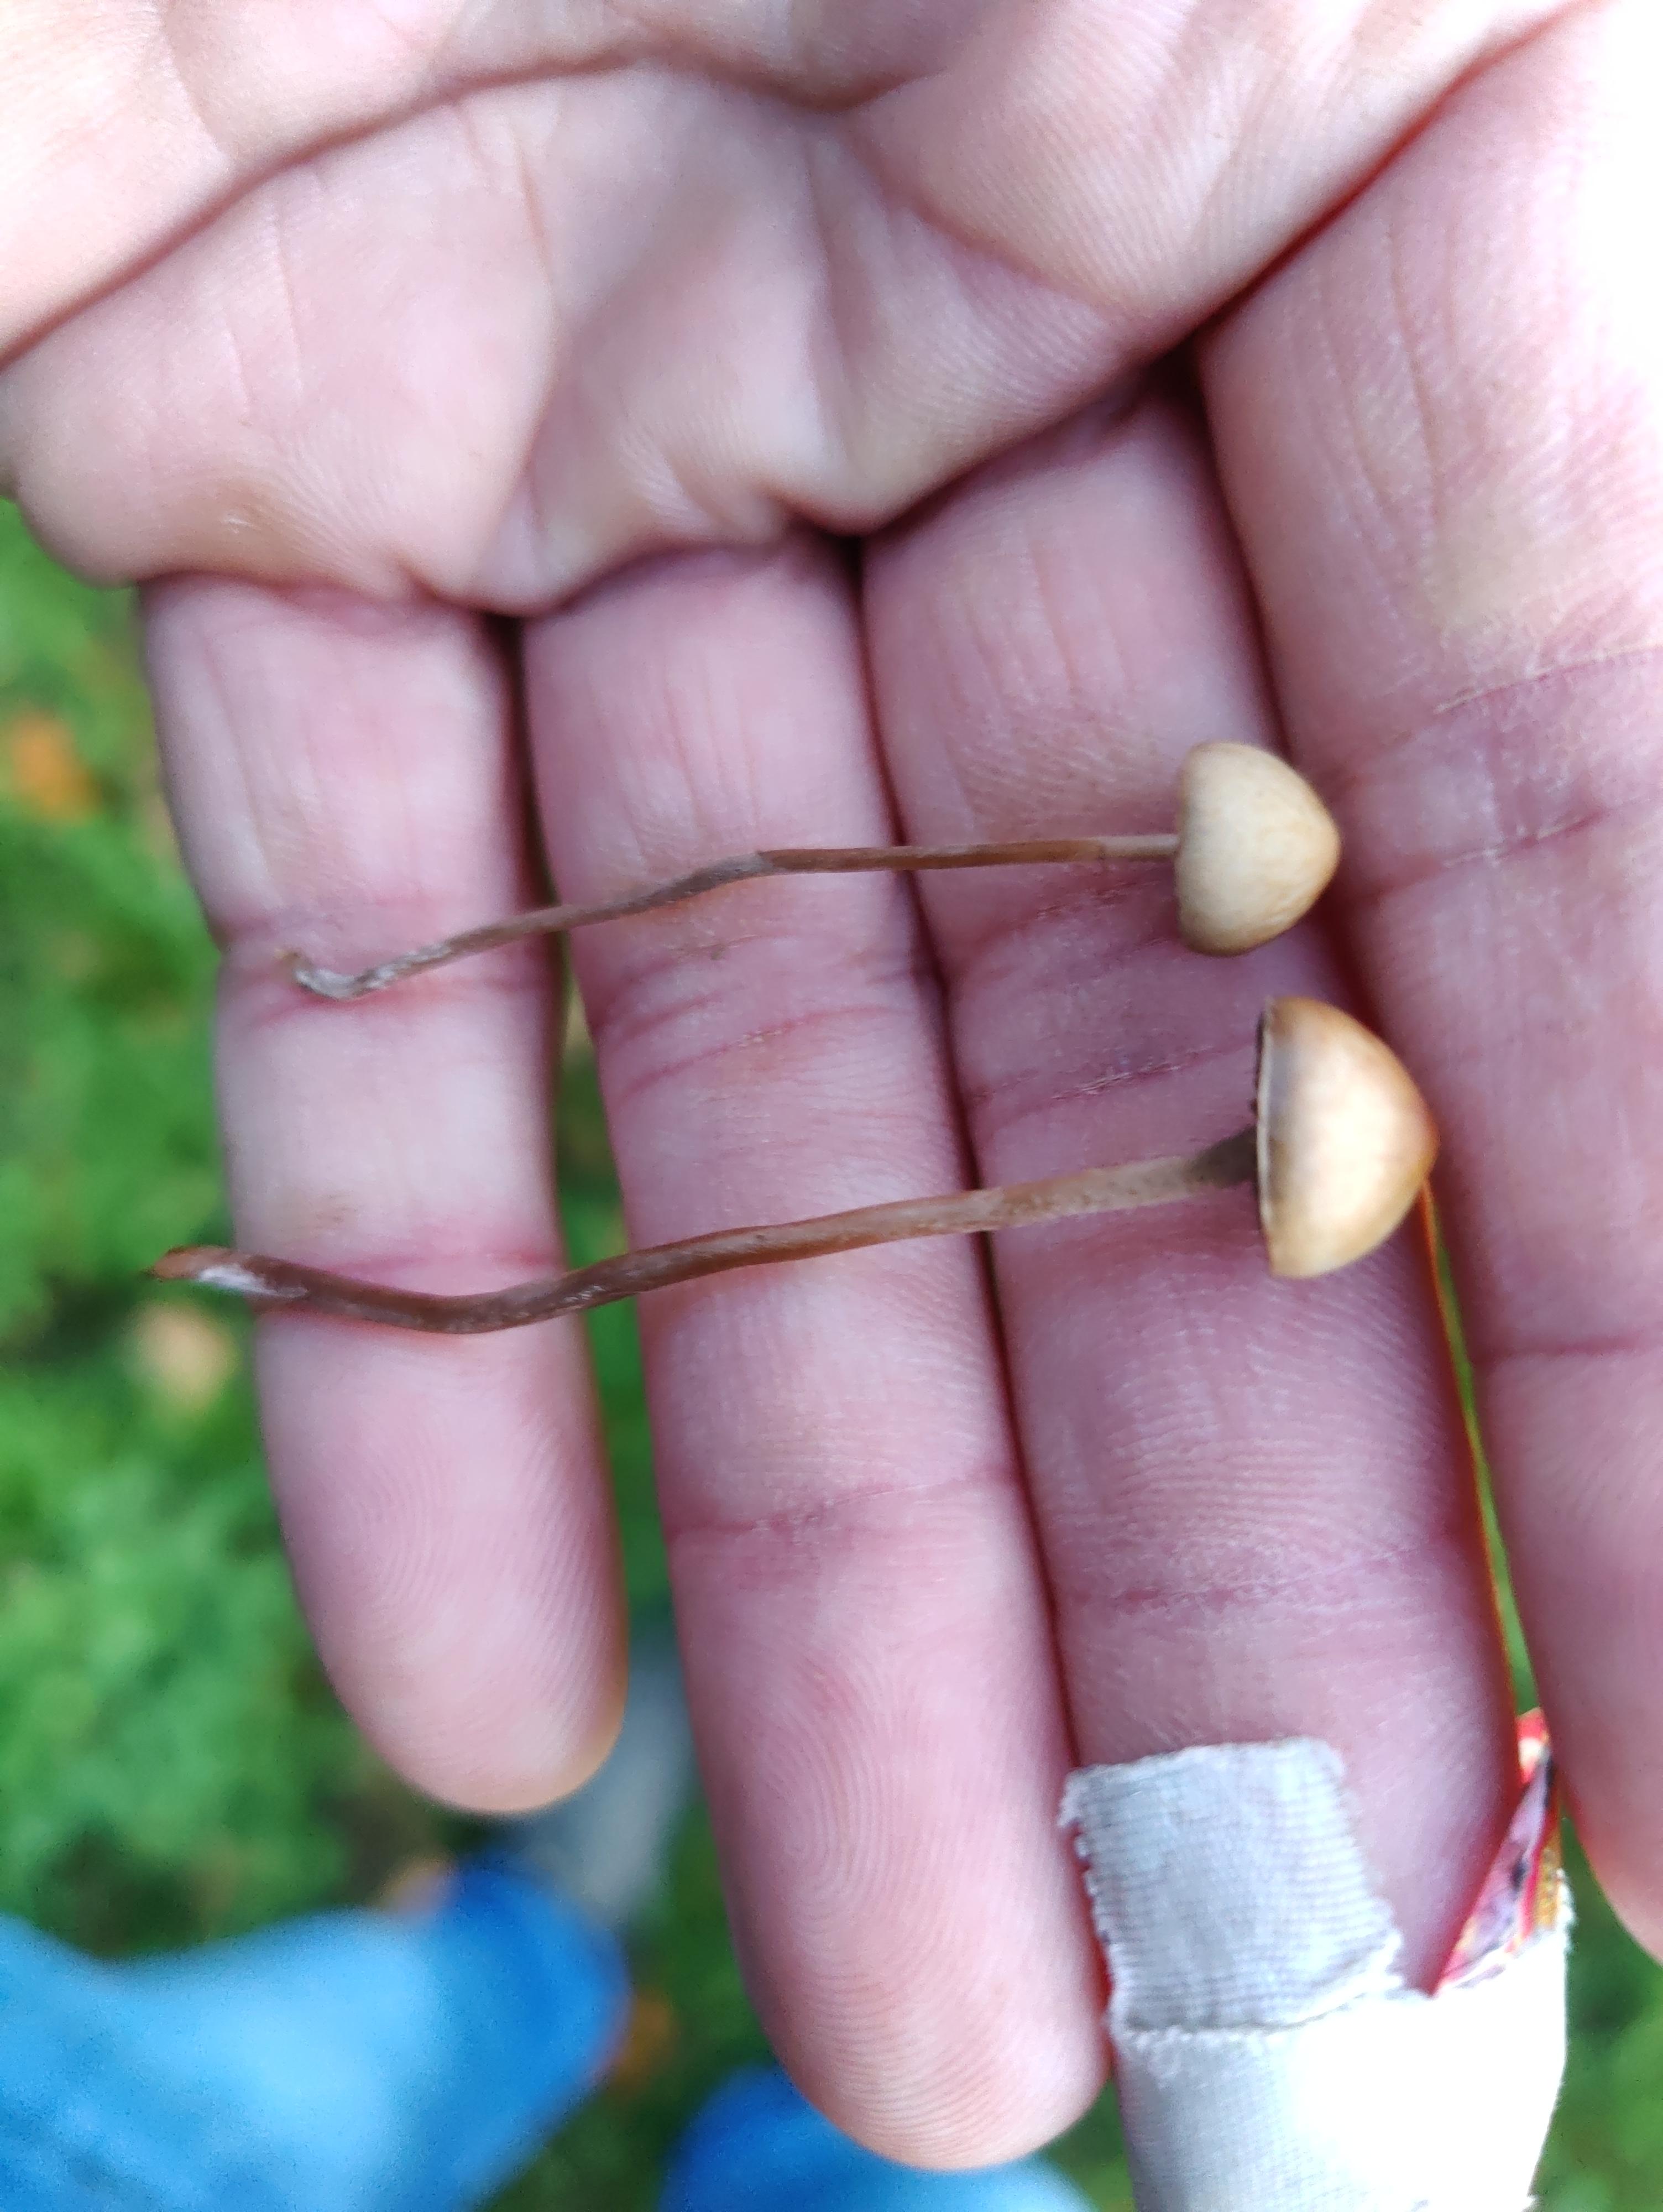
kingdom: Fungi
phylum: Basidiomycota
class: Agaricomycetes
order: Agaricales
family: Strophariaceae
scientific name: Strophariaceae
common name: bredbladfamilien
